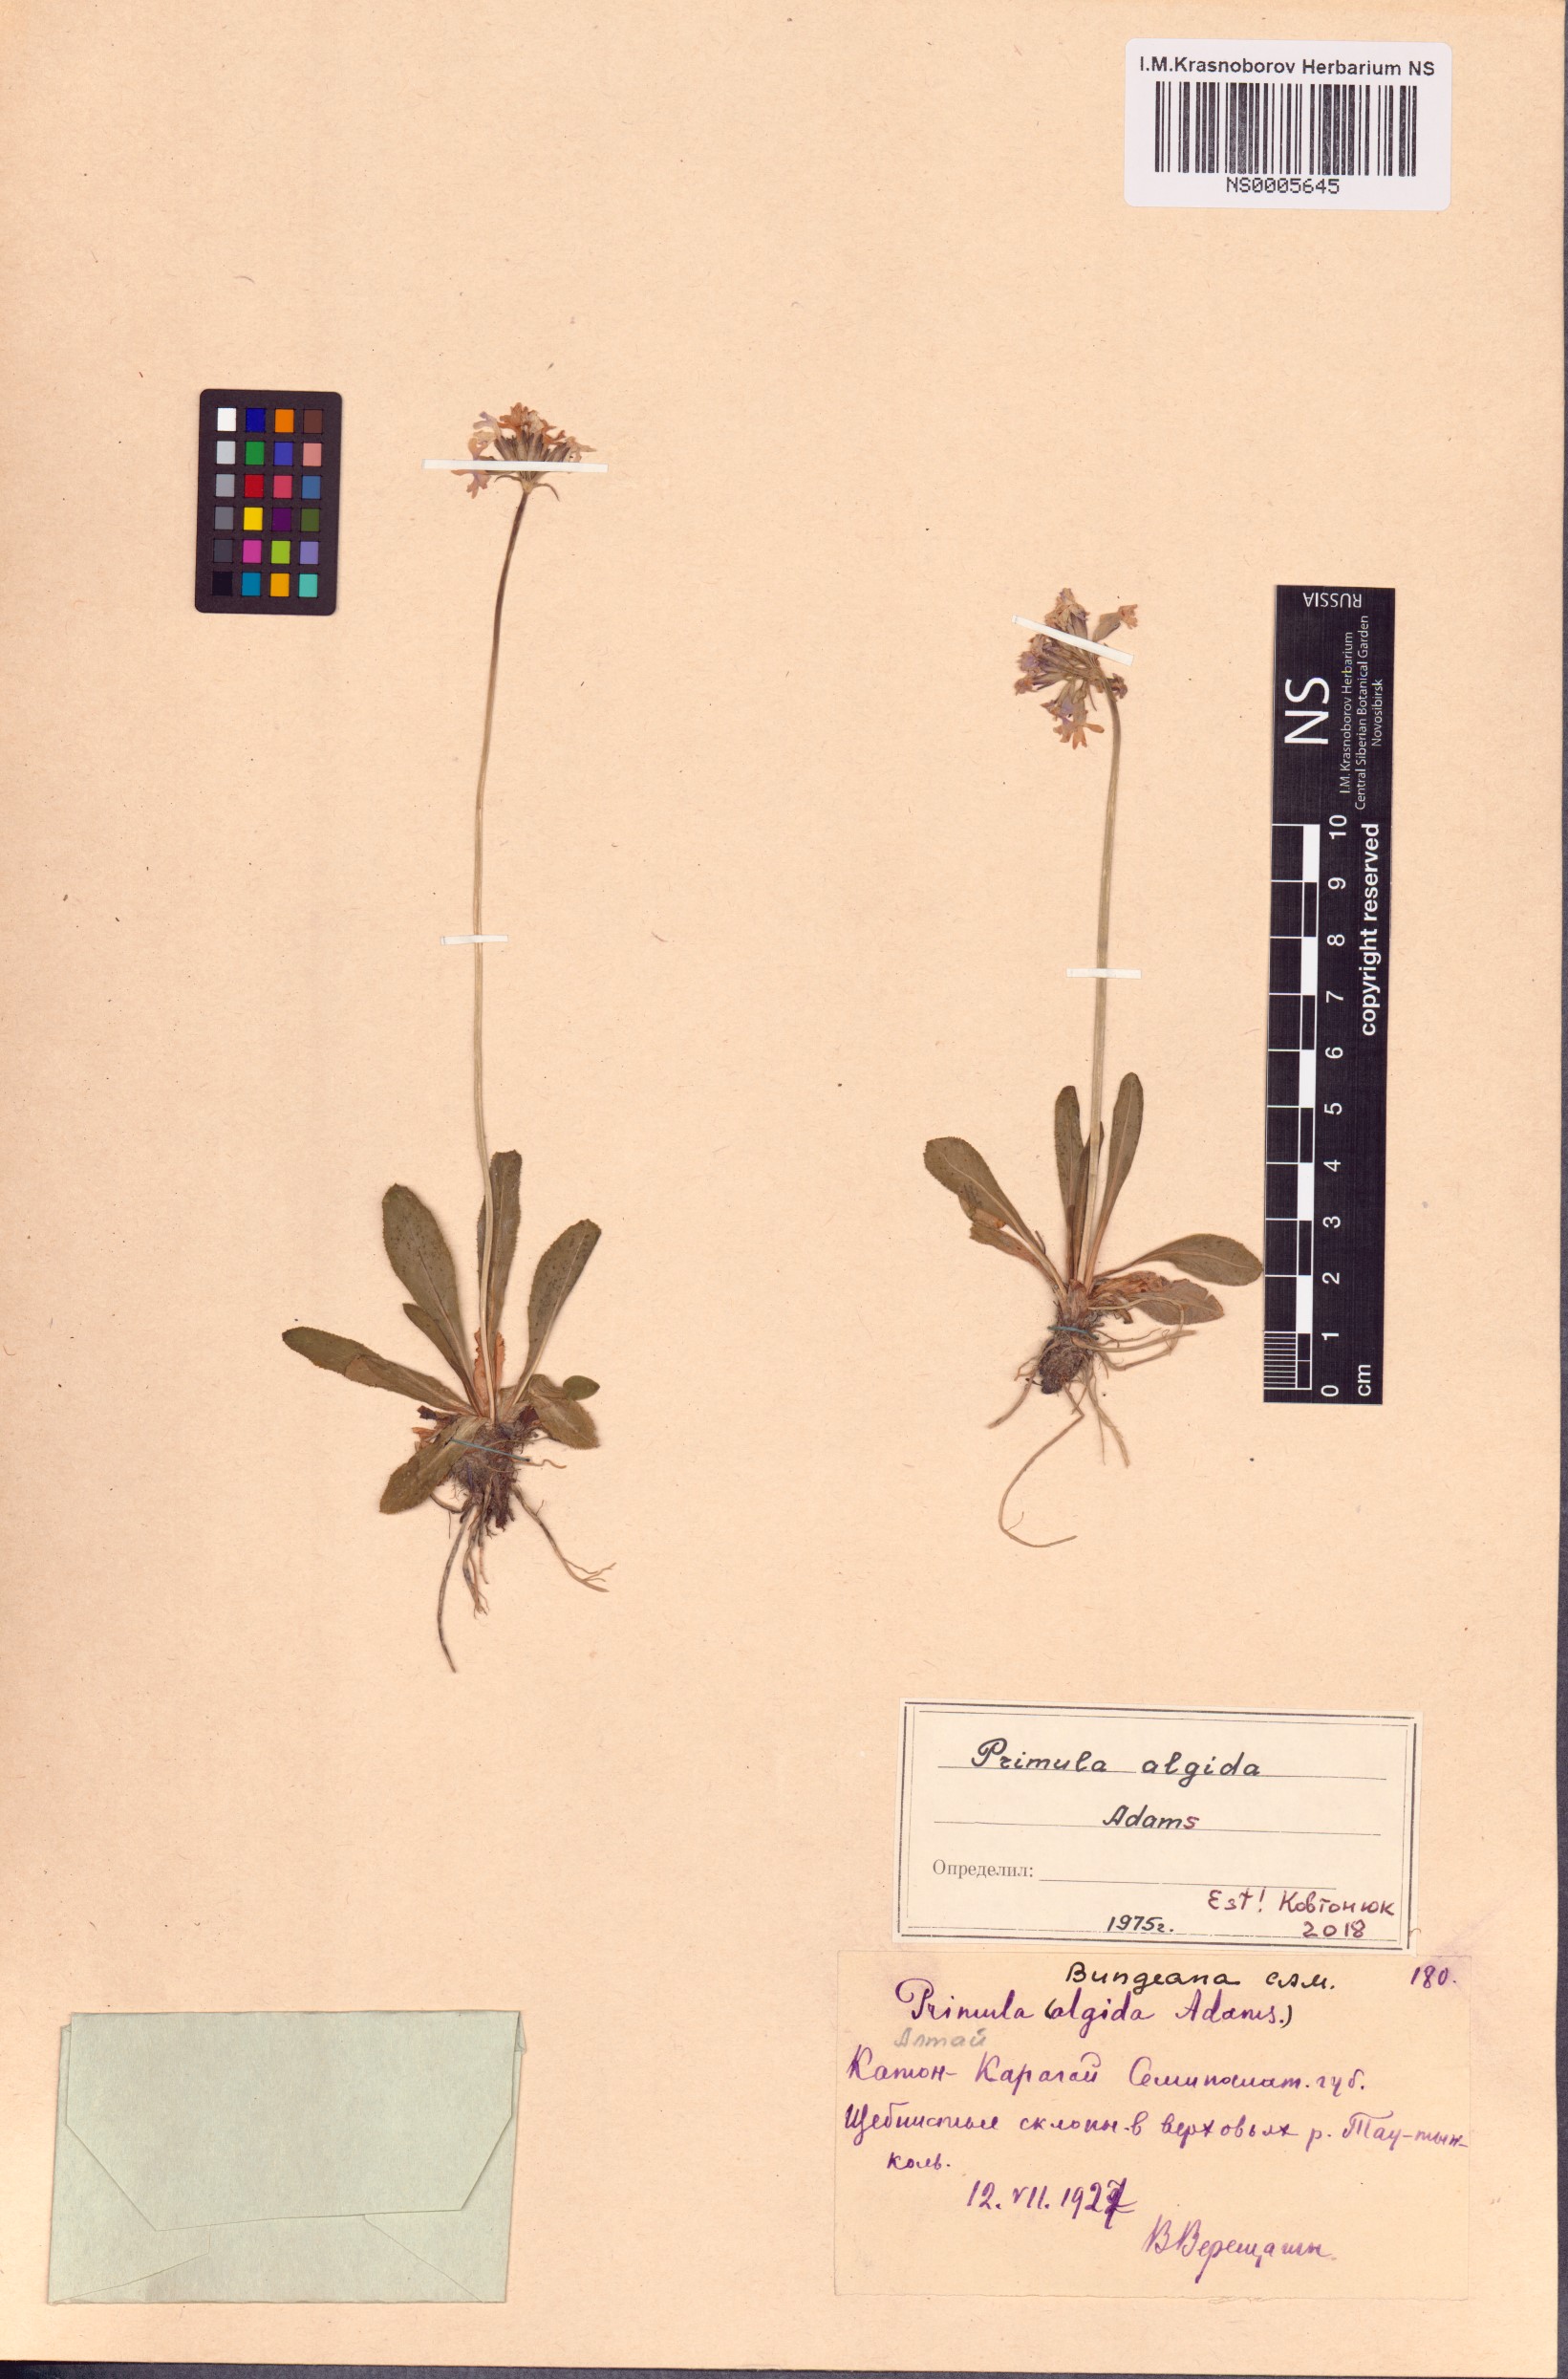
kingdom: Plantae
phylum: Tracheophyta
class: Magnoliopsida
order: Ericales
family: Primulaceae
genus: Primula
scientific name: Primula algida
